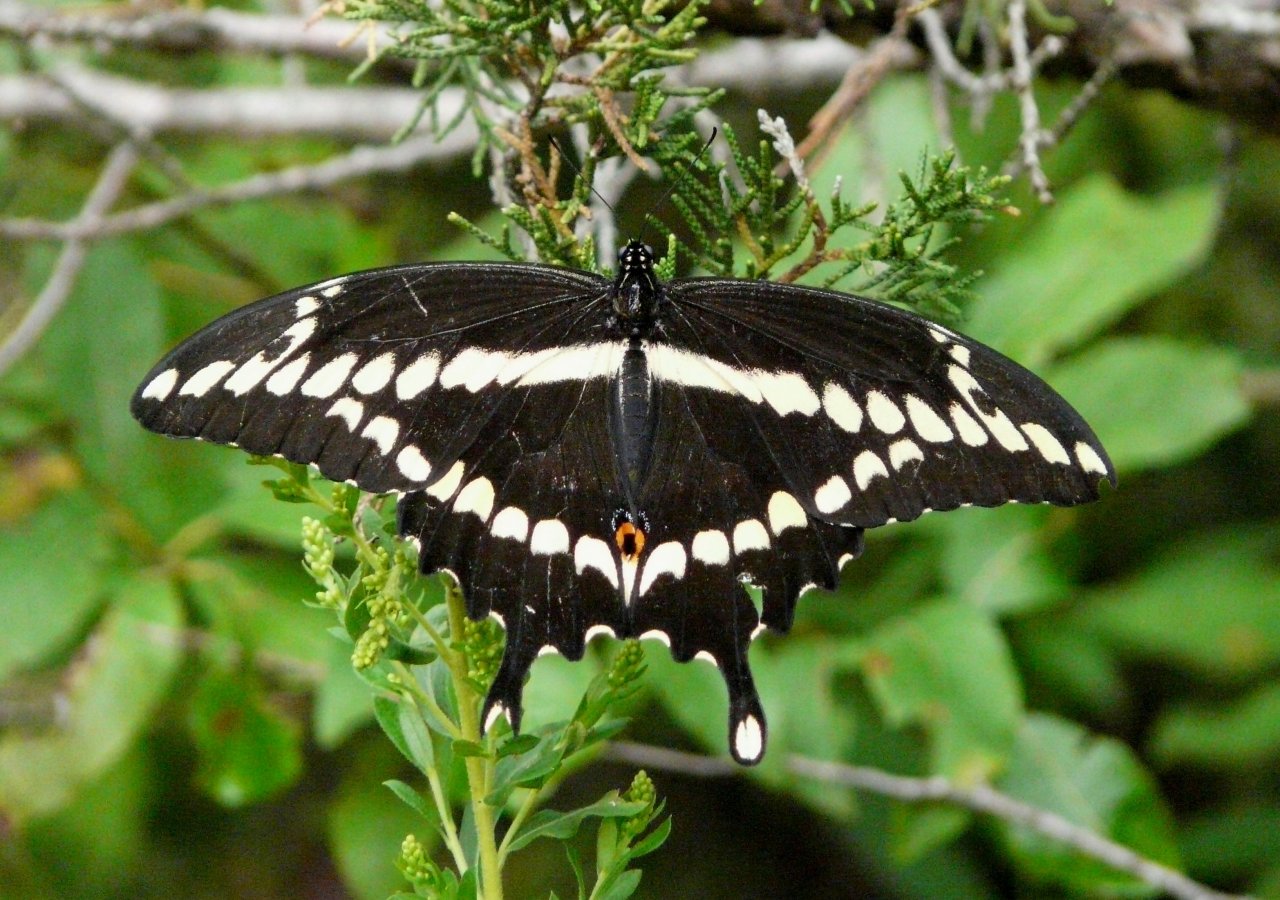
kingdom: Animalia
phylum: Arthropoda
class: Insecta
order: Lepidoptera
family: Papilionidae
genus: Papilio
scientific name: Papilio cresphontes
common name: Eastern Giant Swallowtail
